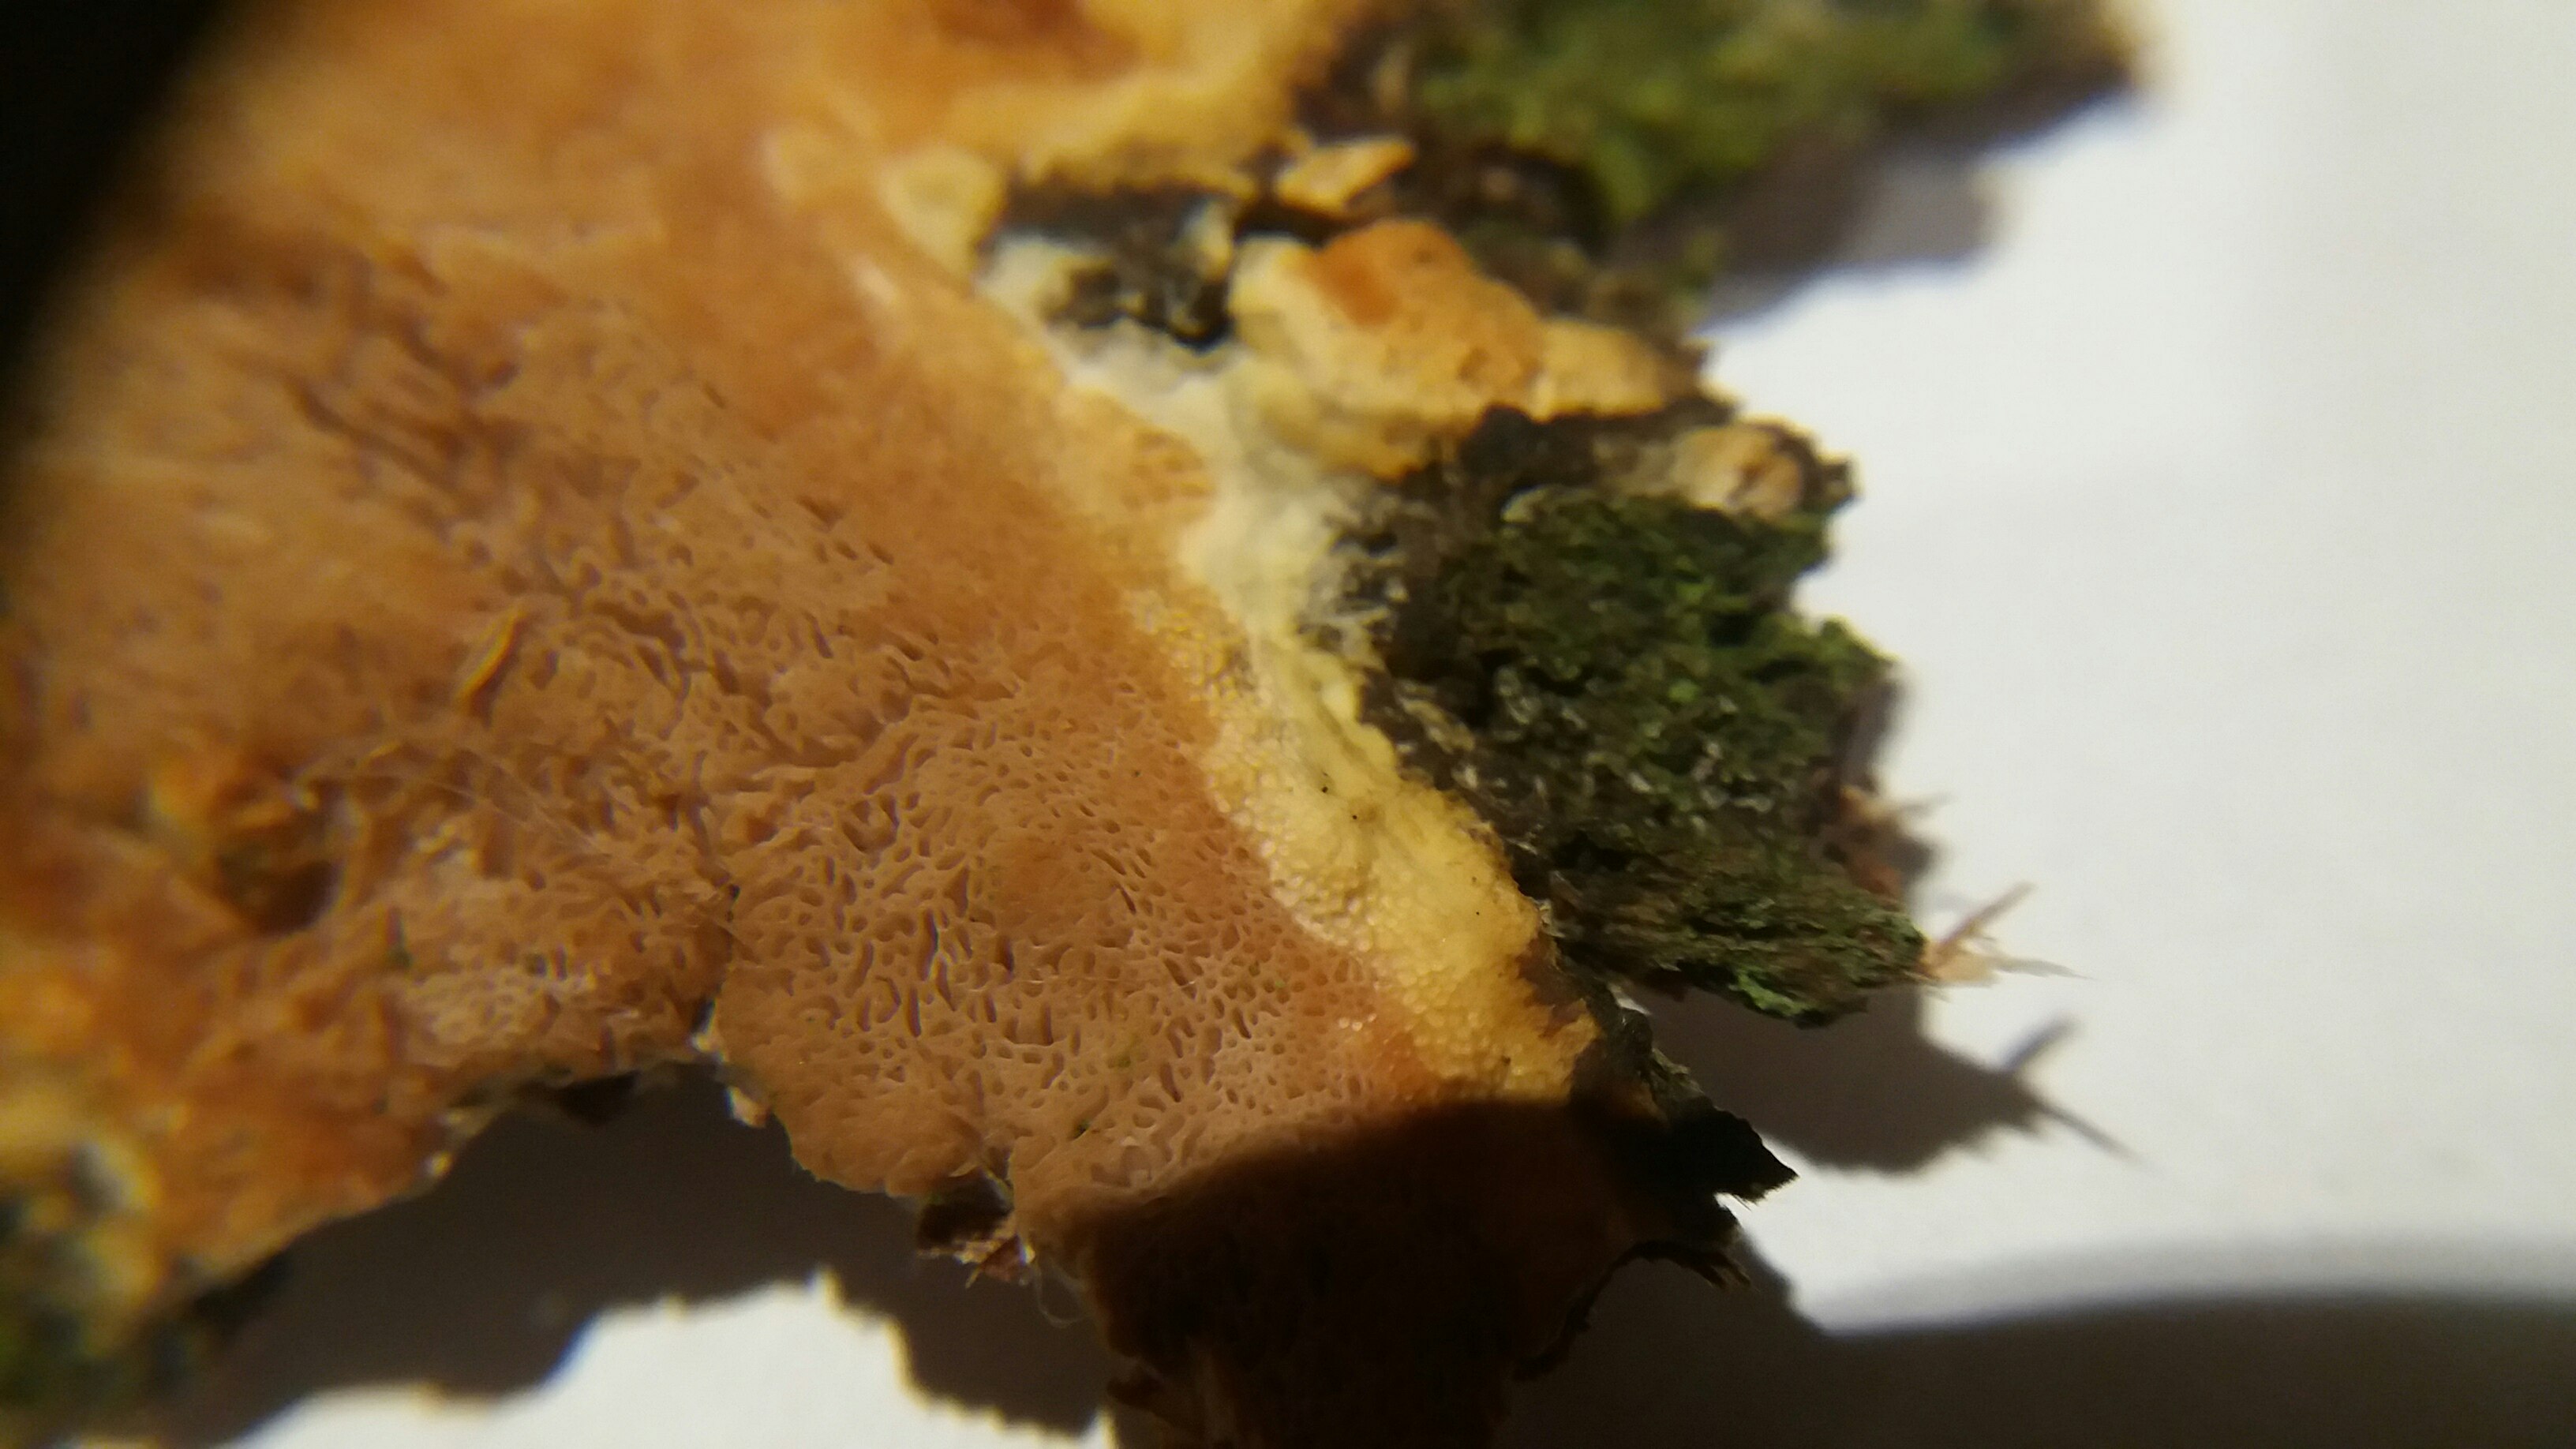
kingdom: Fungi
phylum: Basidiomycota
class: Agaricomycetes
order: Polyporales
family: Irpicaceae
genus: Resiniporus
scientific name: Resiniporus resinascens
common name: trist pastelporesvamp
